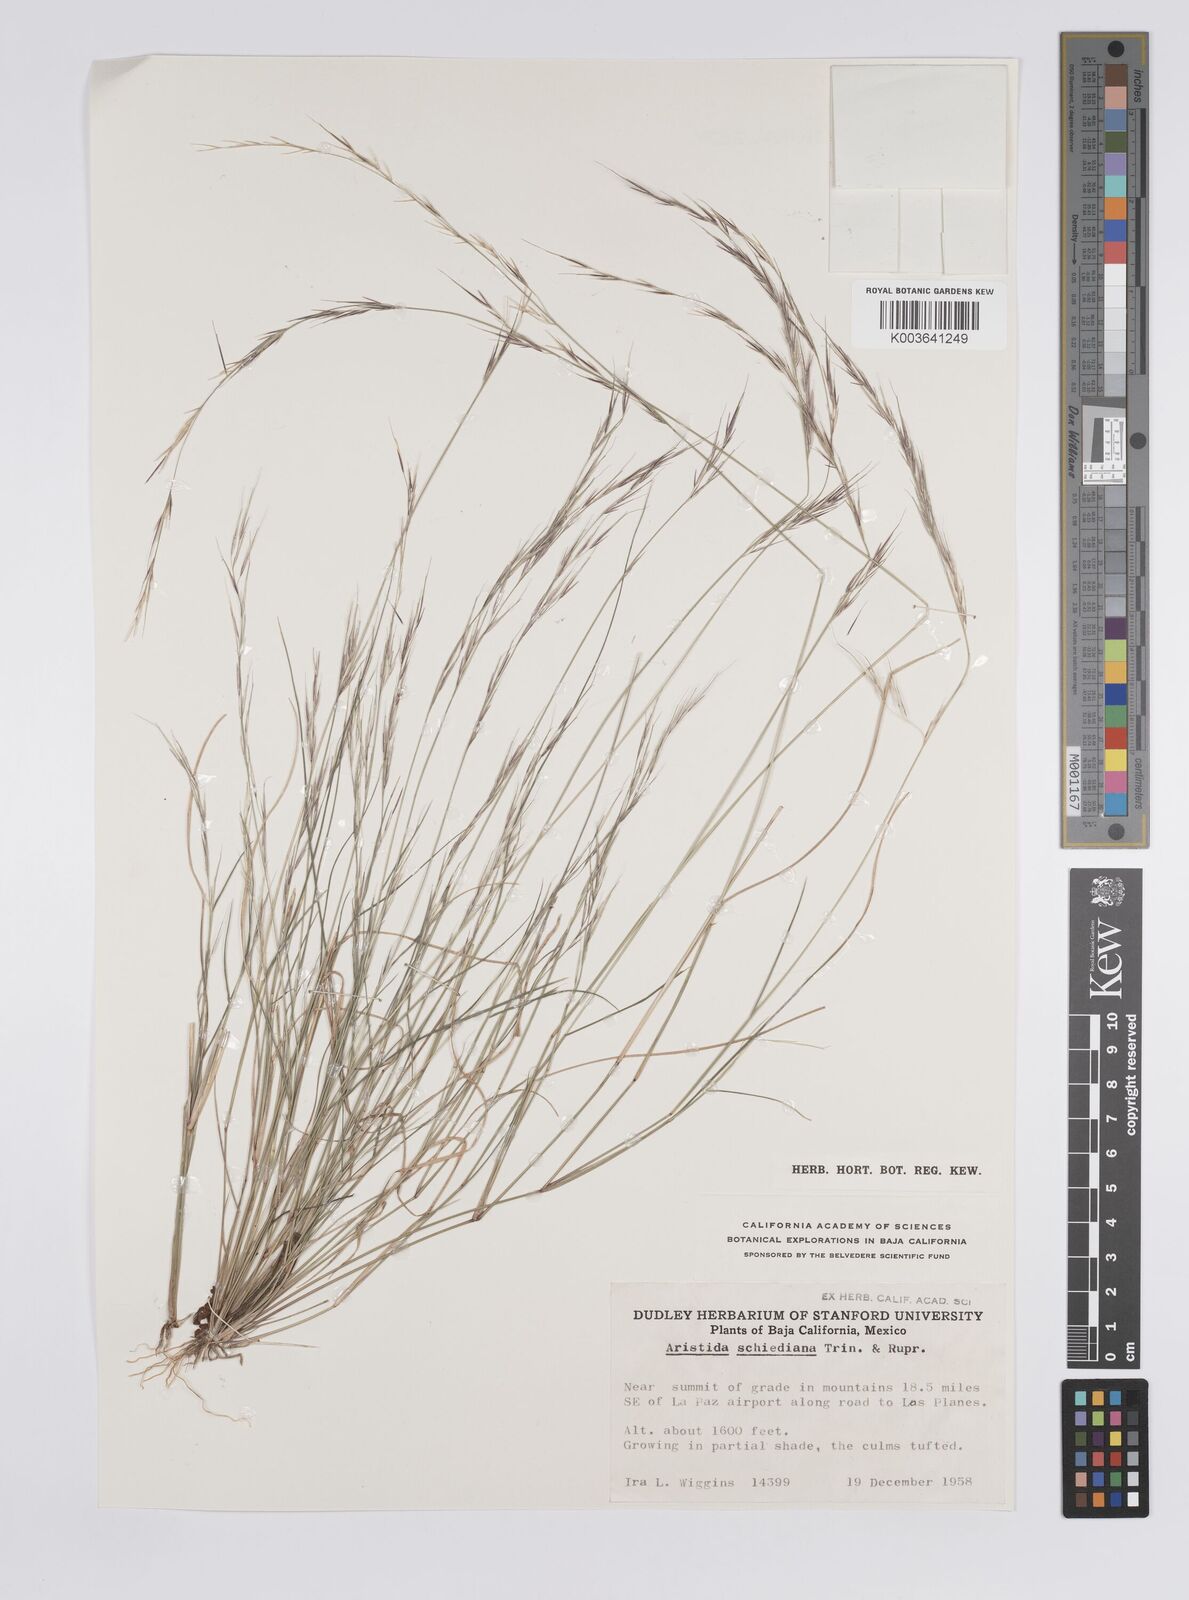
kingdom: Plantae
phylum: Tracheophyta
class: Liliopsida
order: Poales
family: Poaceae
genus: Aristida
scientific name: Aristida schiedeana
